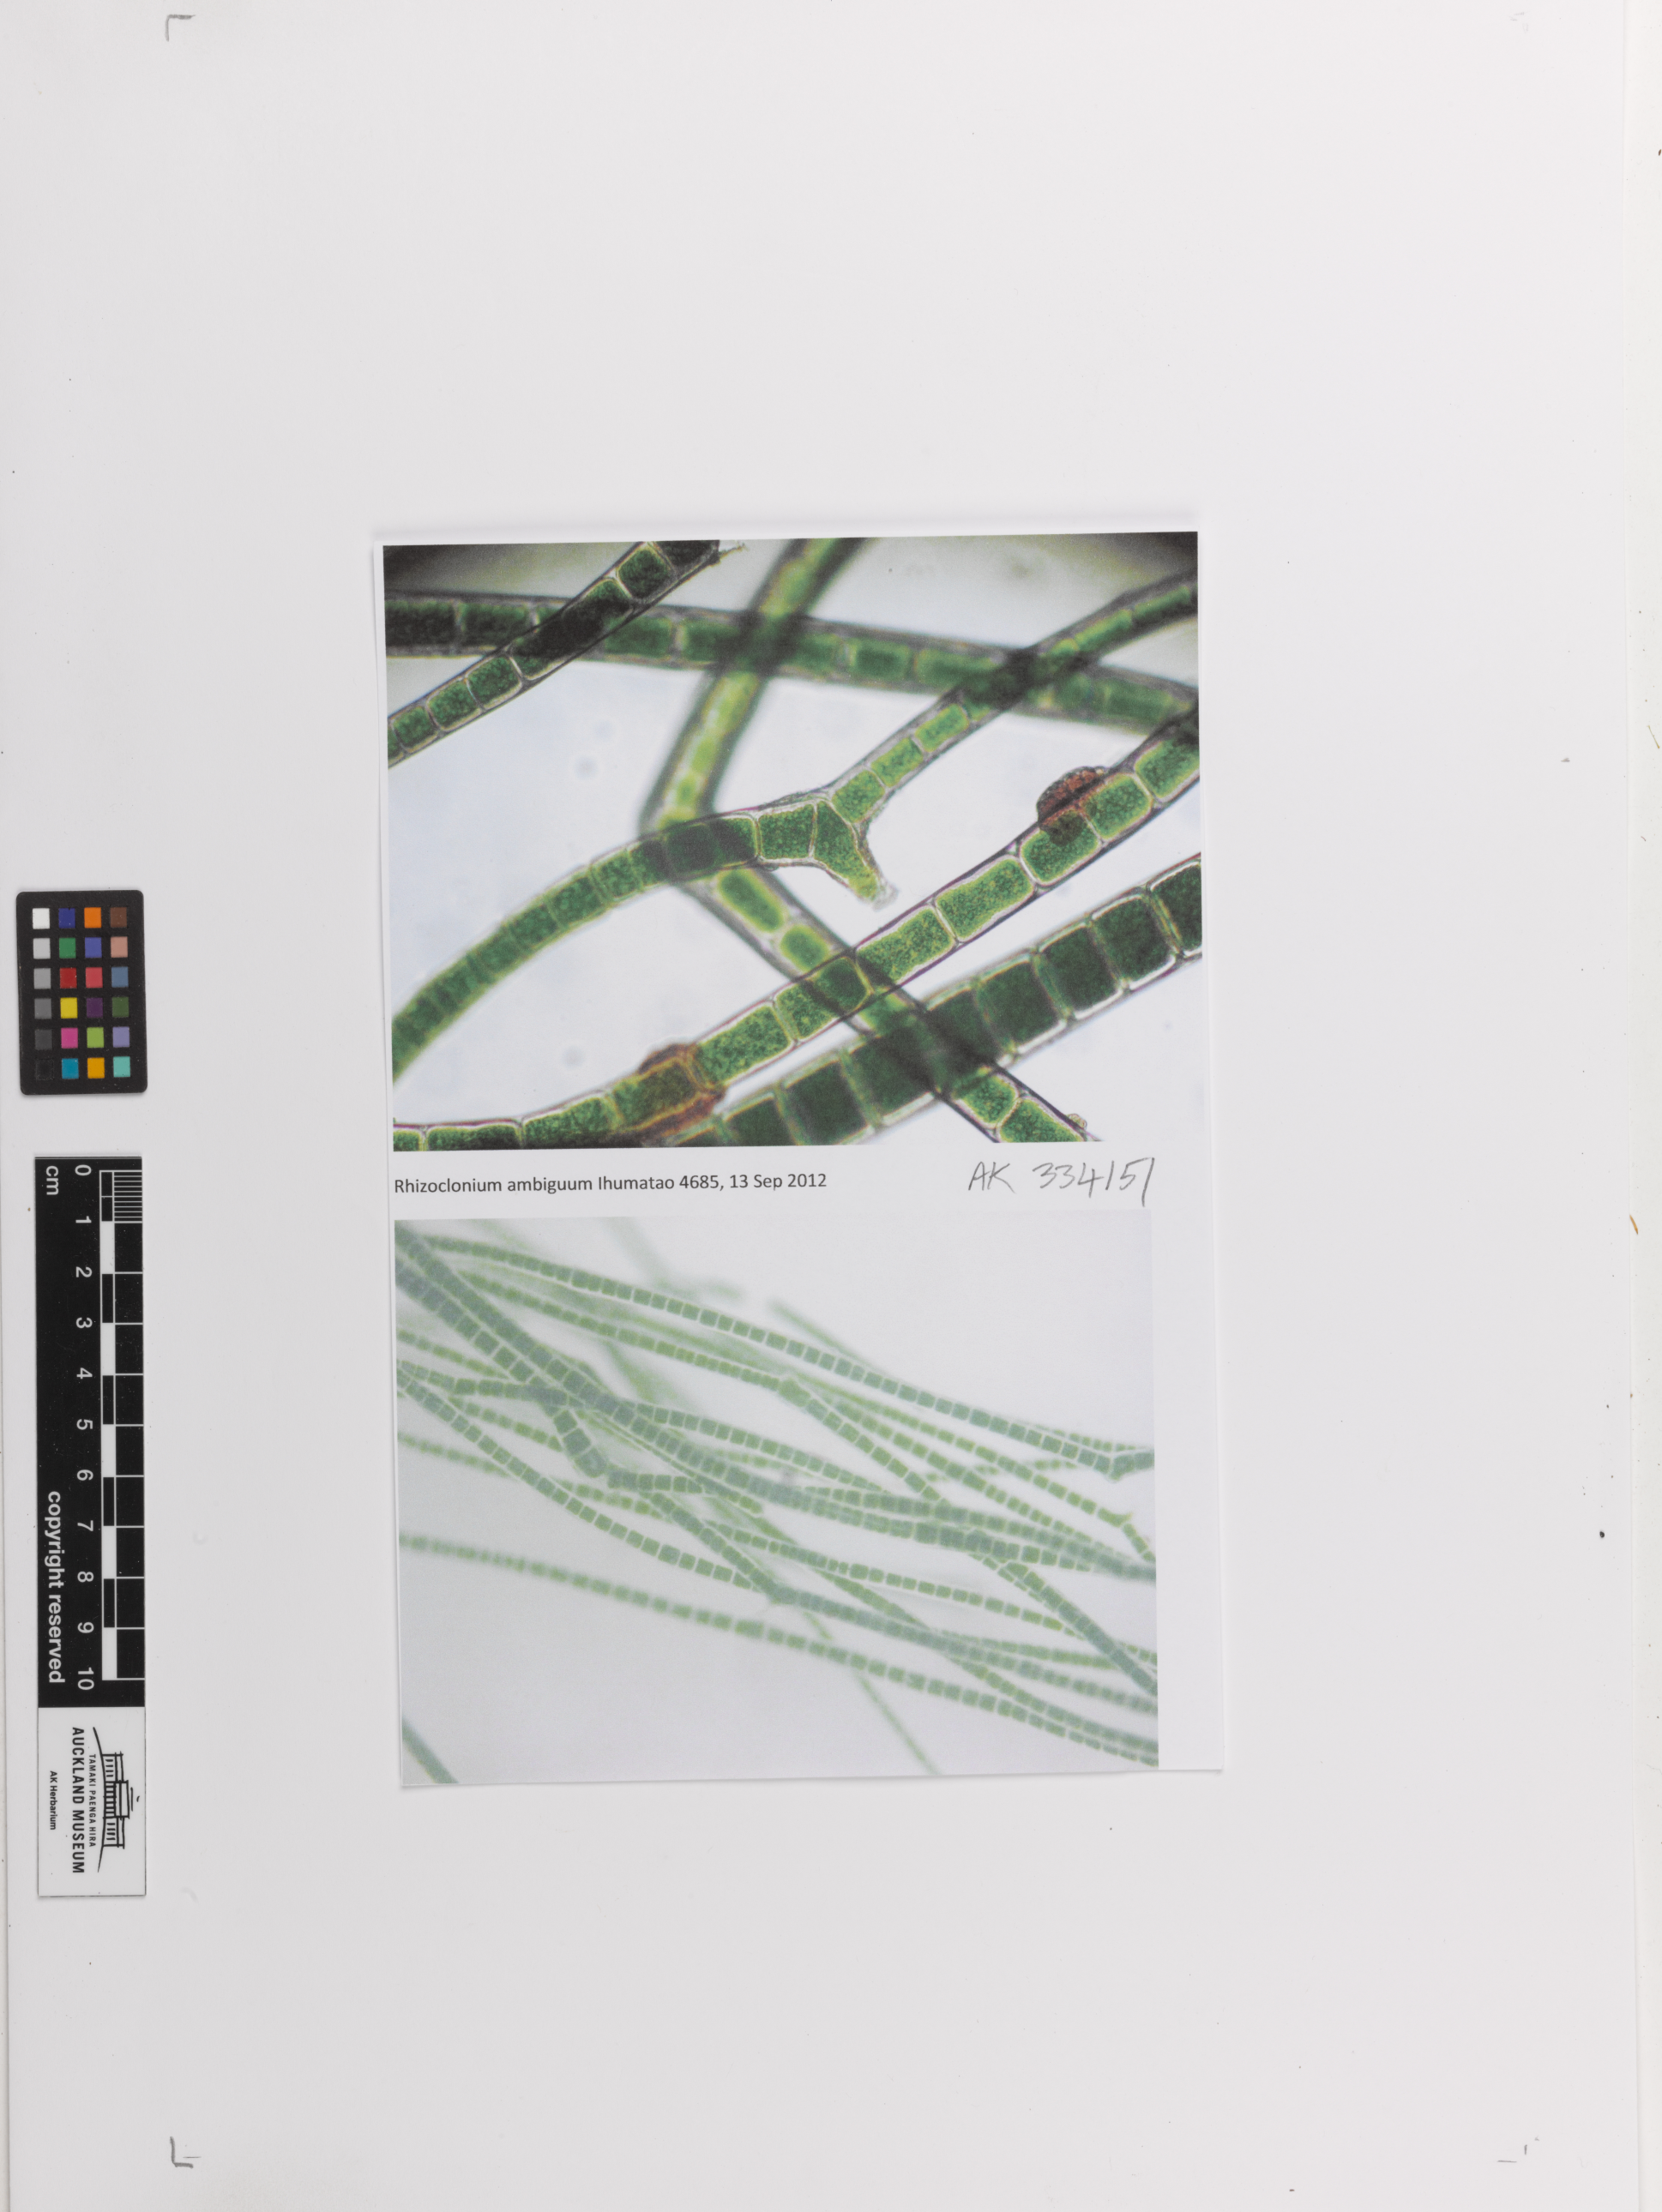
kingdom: Plantae
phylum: Chlorophyta
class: Ulvophyceae
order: Cladophorales
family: Cladophoraceae
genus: Pseudorhizoclonium
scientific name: Pseudorhizoclonium
